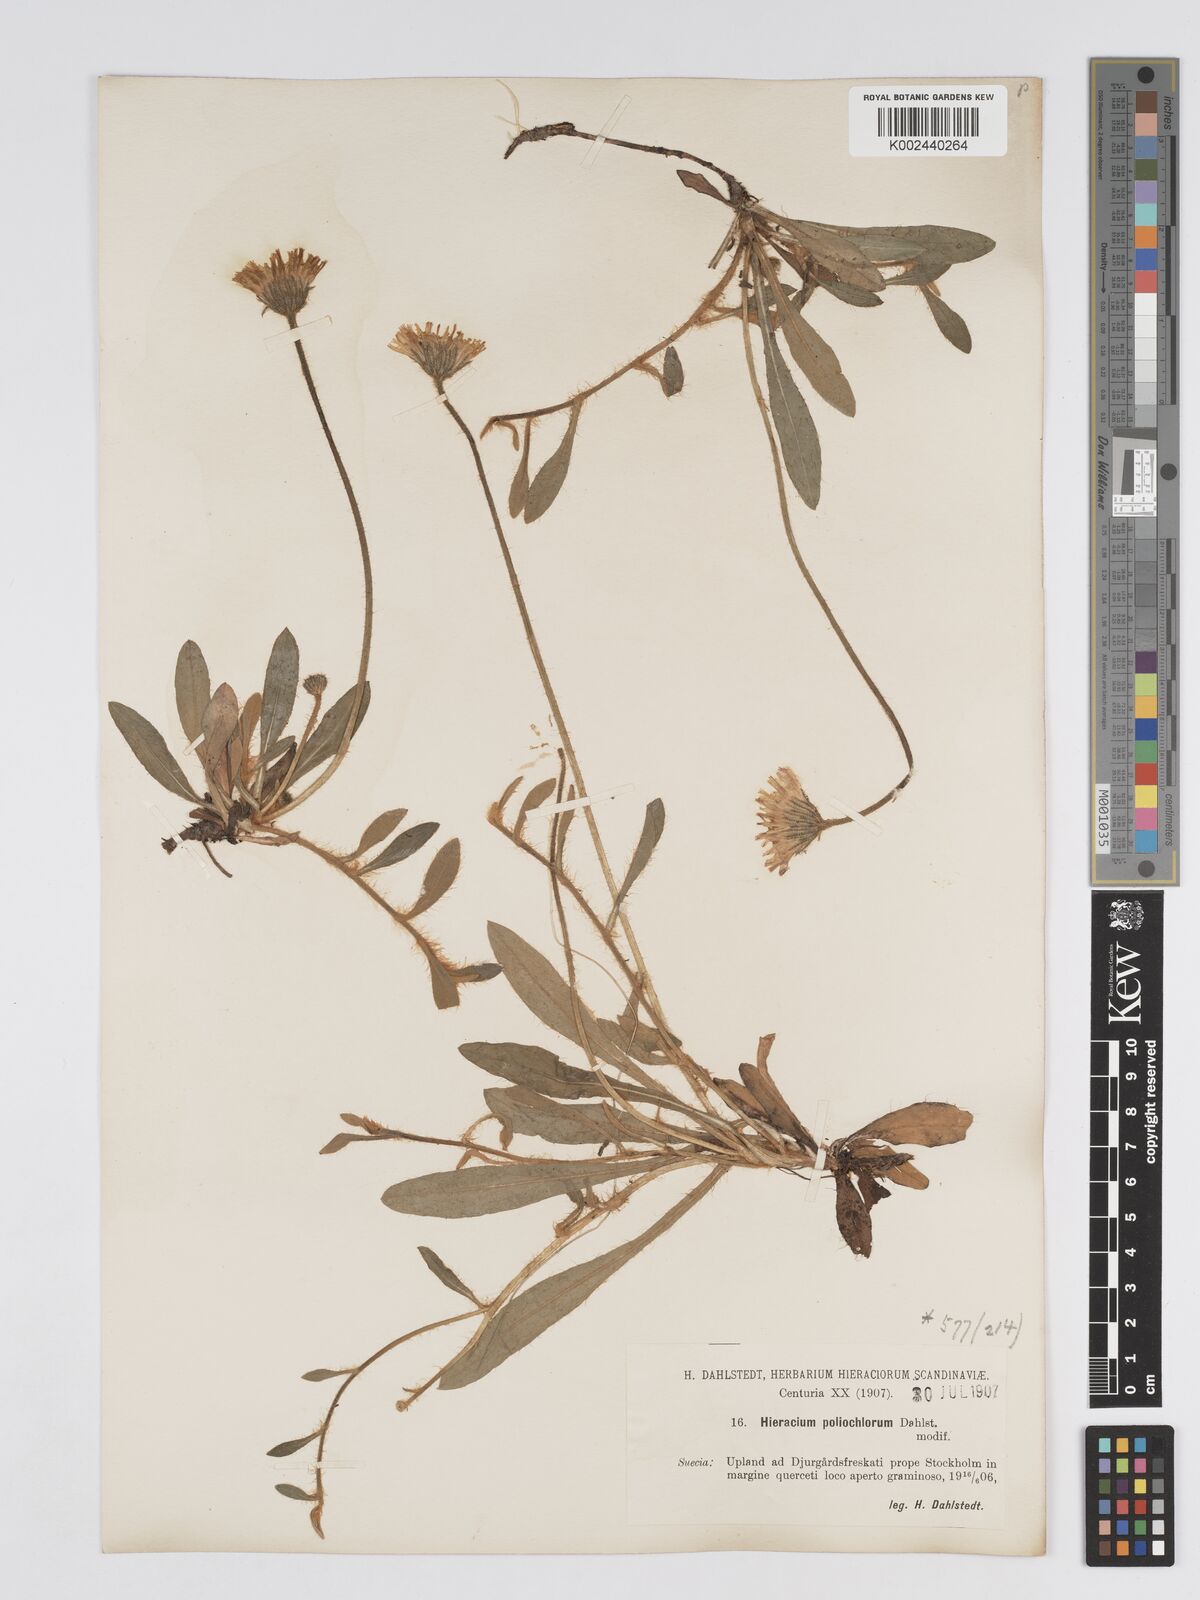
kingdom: Plantae
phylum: Tracheophyta
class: Magnoliopsida
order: Asterales
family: Asteraceae
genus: Pilosella
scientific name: Pilosella officinarum
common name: Mouse-ear hawkweed
